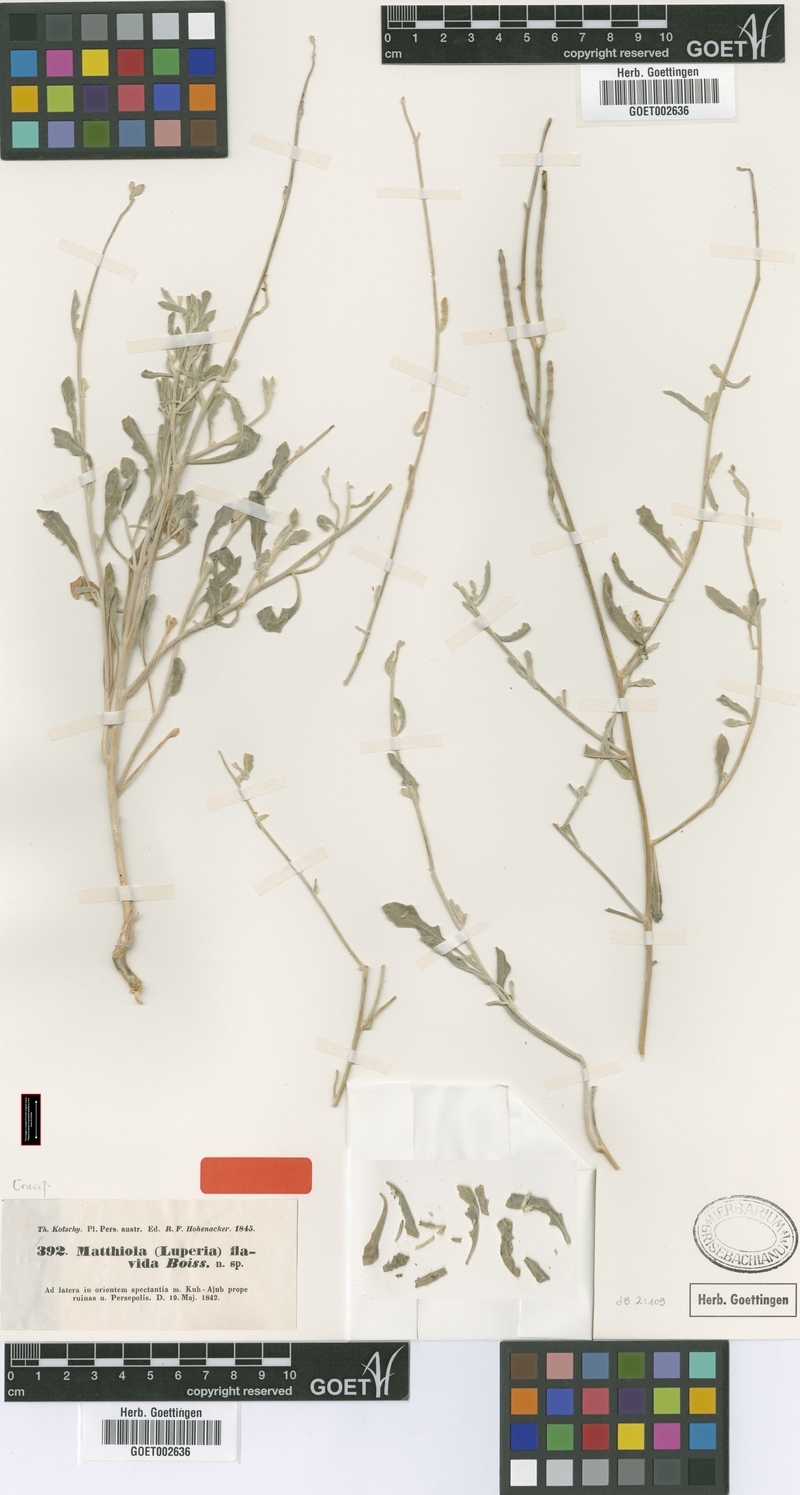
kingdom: Plantae
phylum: Tracheophyta
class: Magnoliopsida
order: Brassicales
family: Brassicaceae
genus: Matthiola
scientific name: Matthiola flavida
